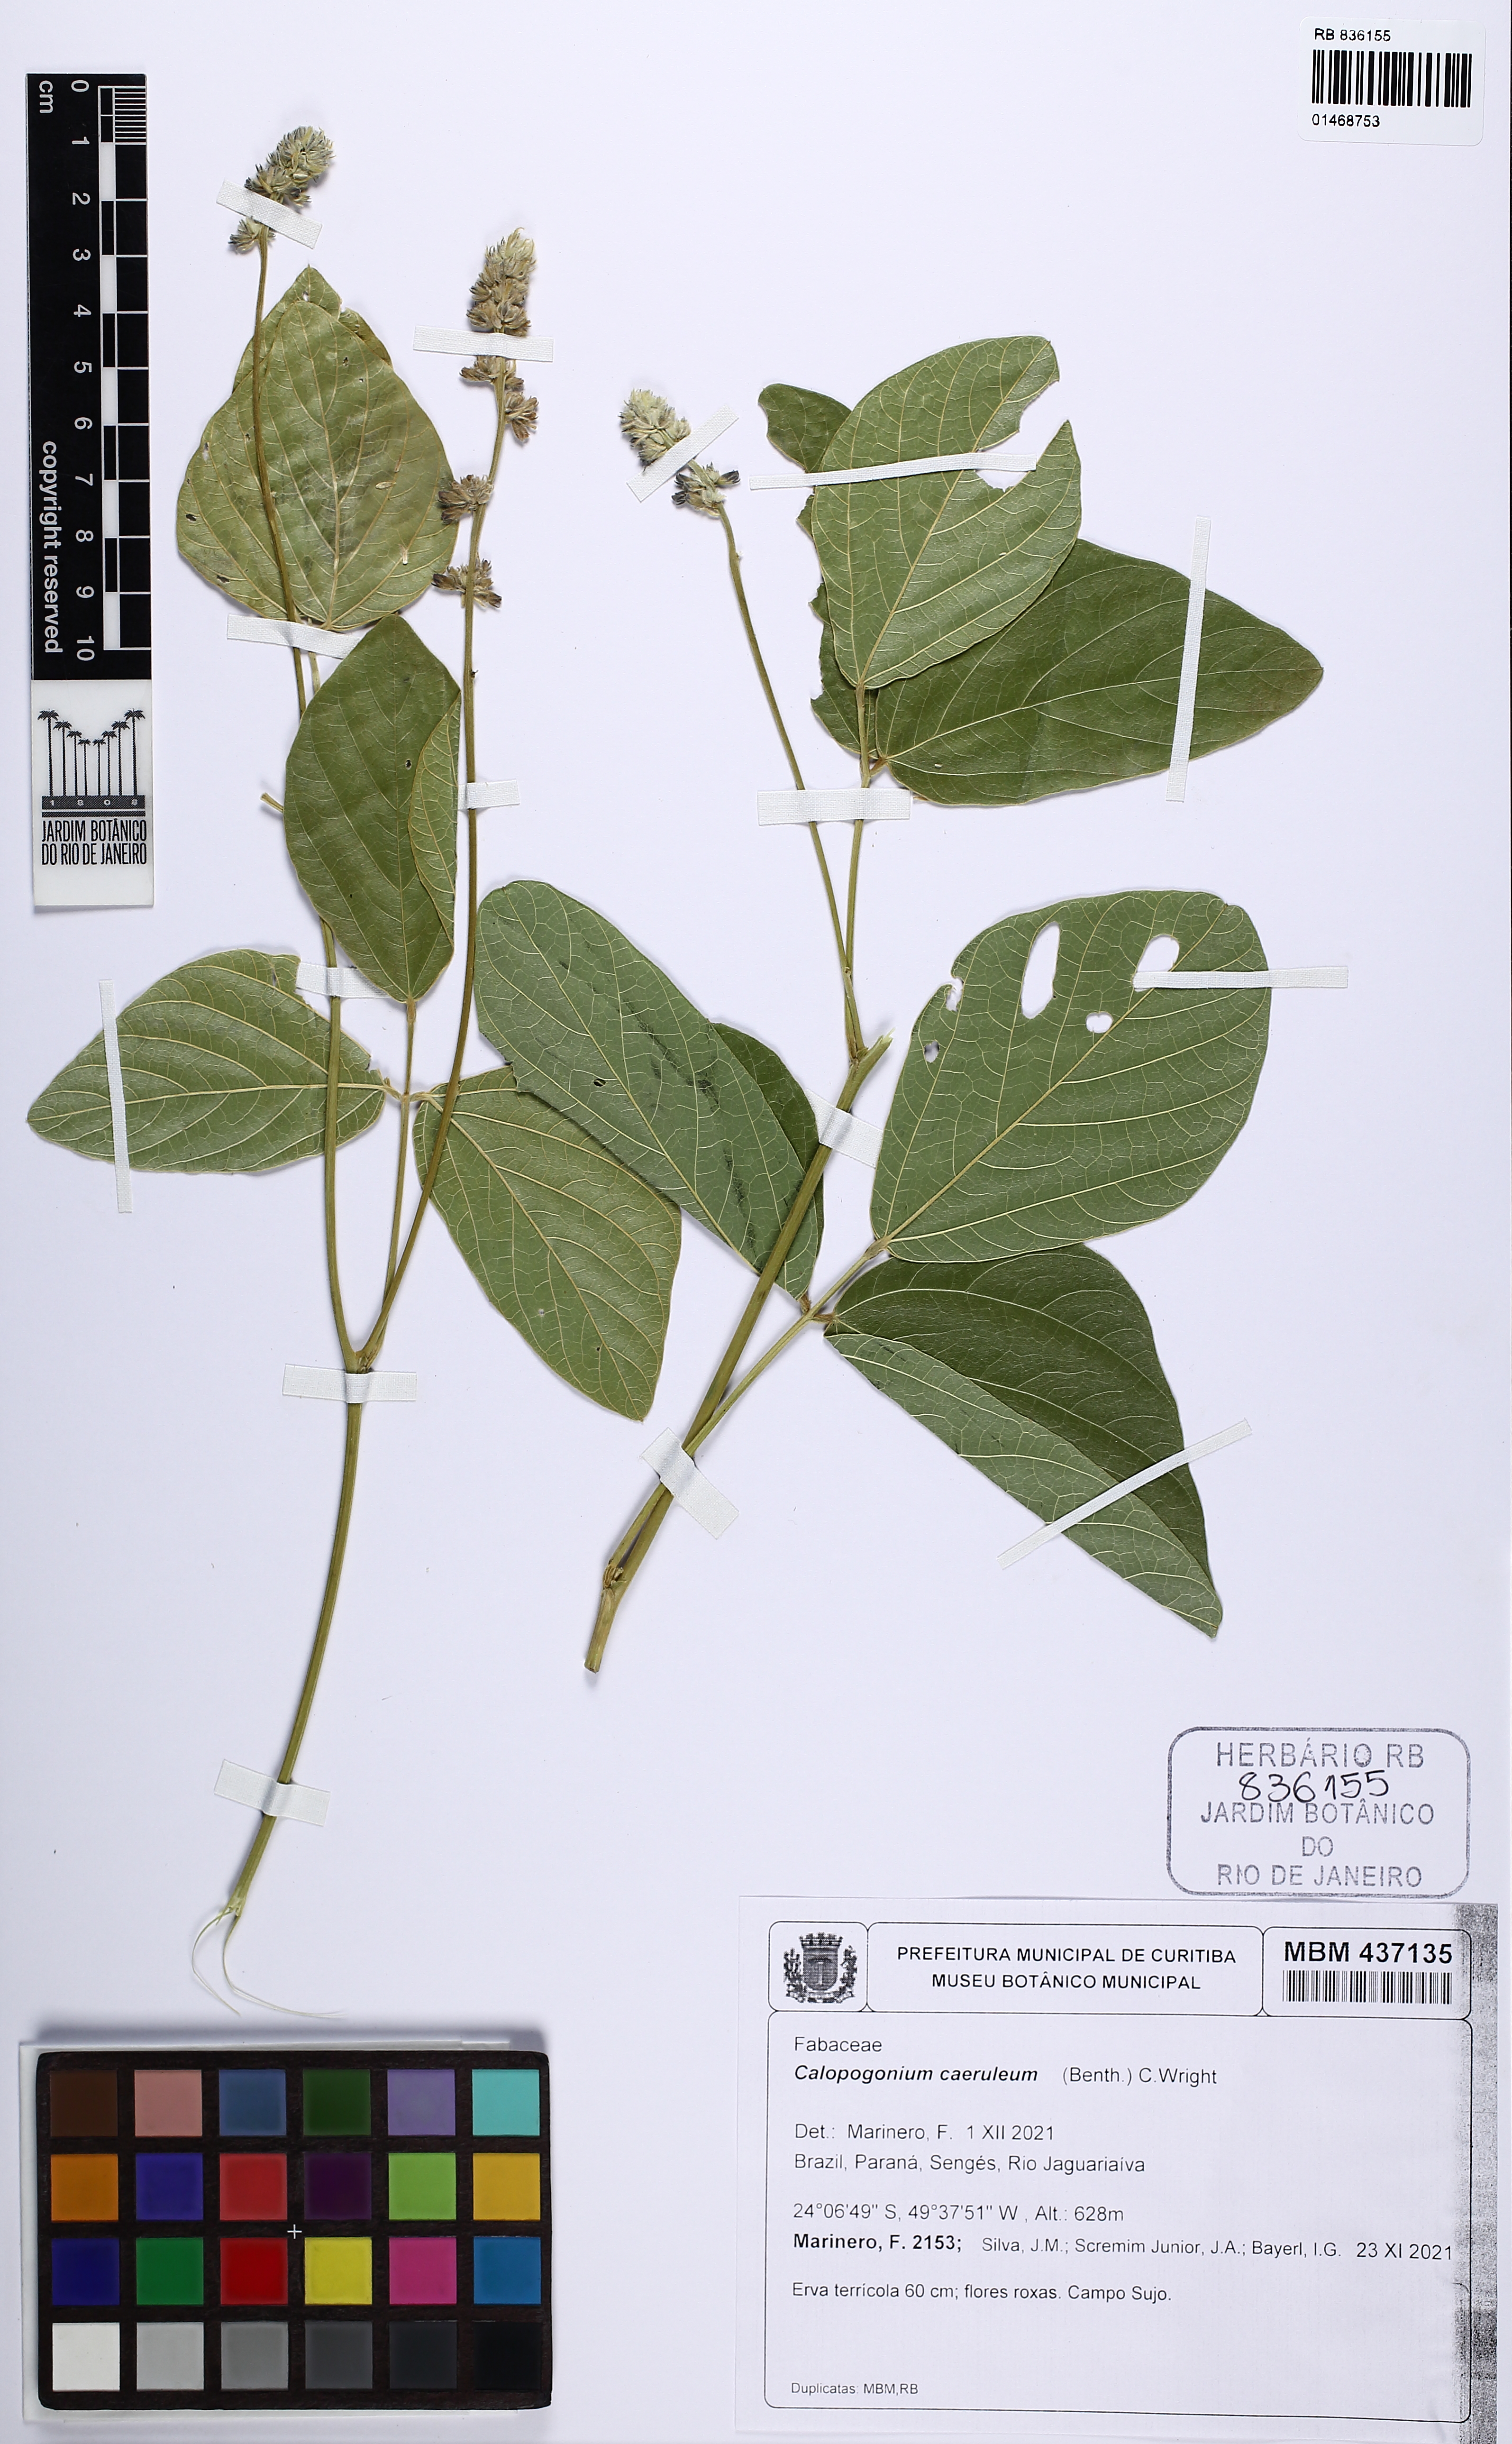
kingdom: Plantae
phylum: Tracheophyta
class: Magnoliopsida
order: Fabales
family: Fabaceae
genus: Calopogonium
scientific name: Calopogonium caeruleum
